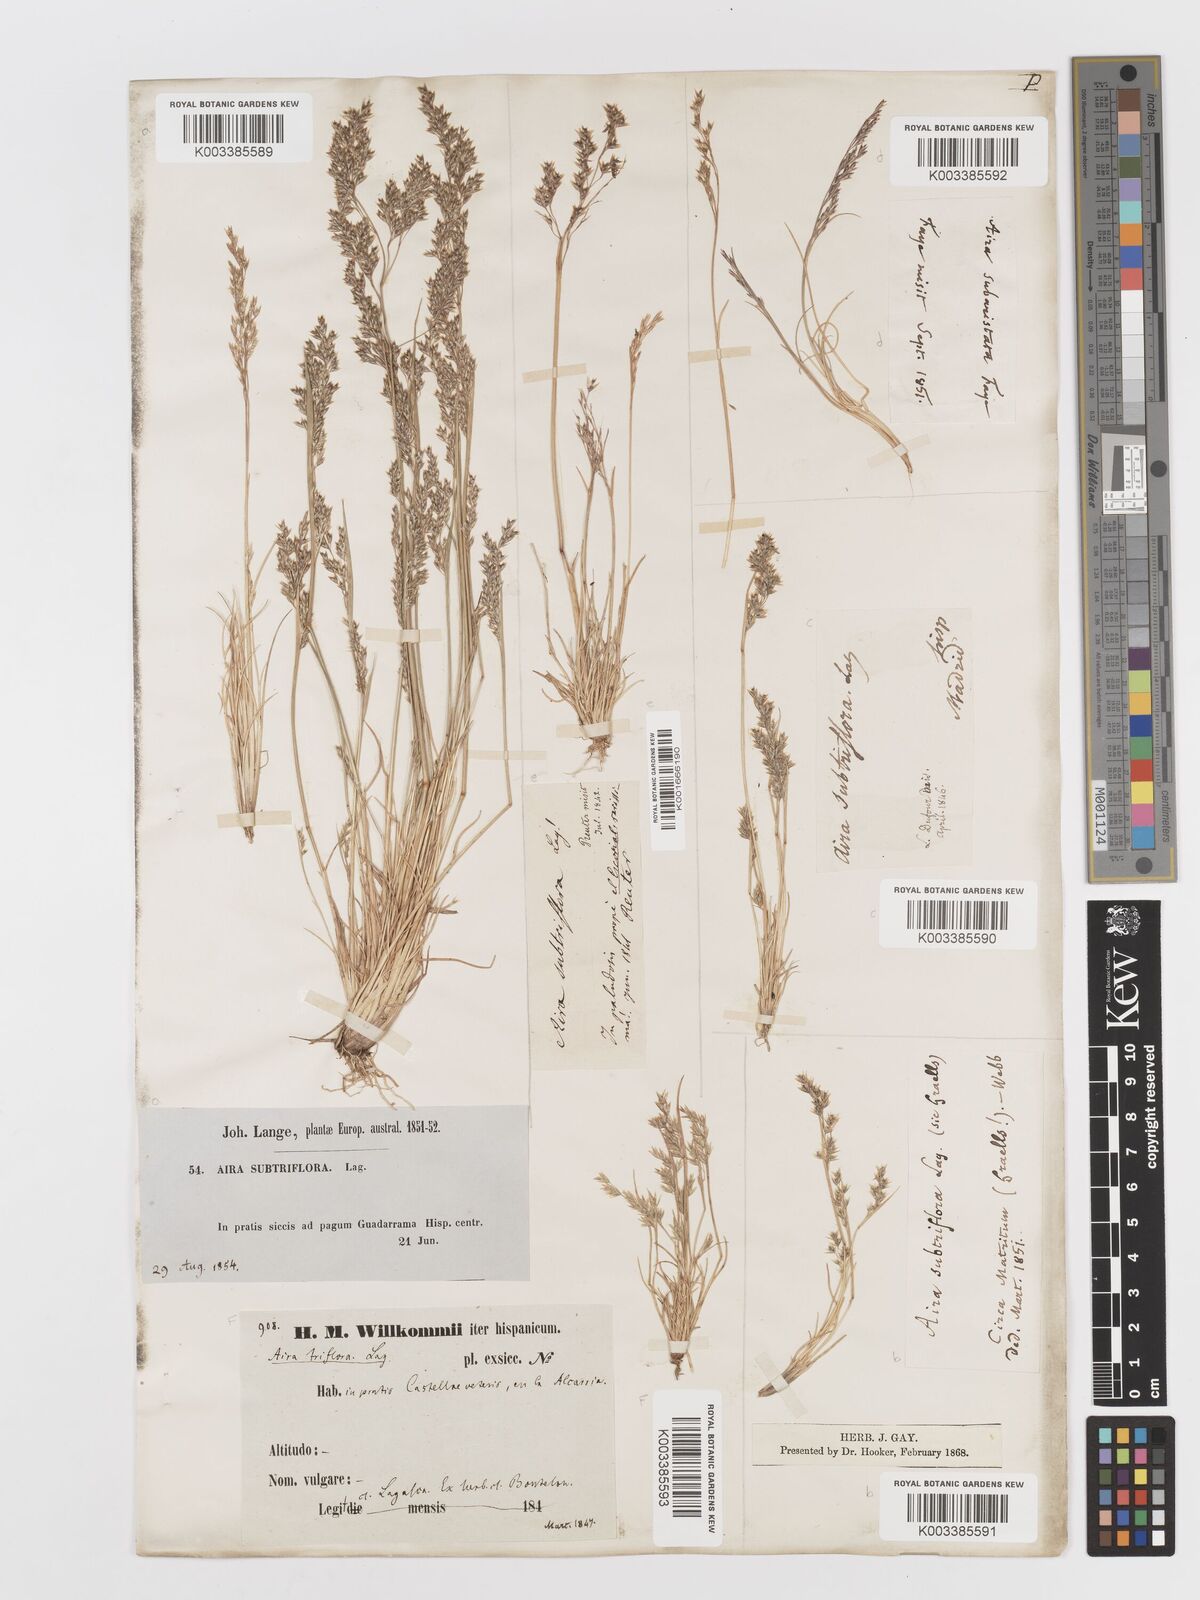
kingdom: Plantae
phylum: Tracheophyta
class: Liliopsida
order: Poales
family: Poaceae
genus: Deschampsia
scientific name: Deschampsia media
